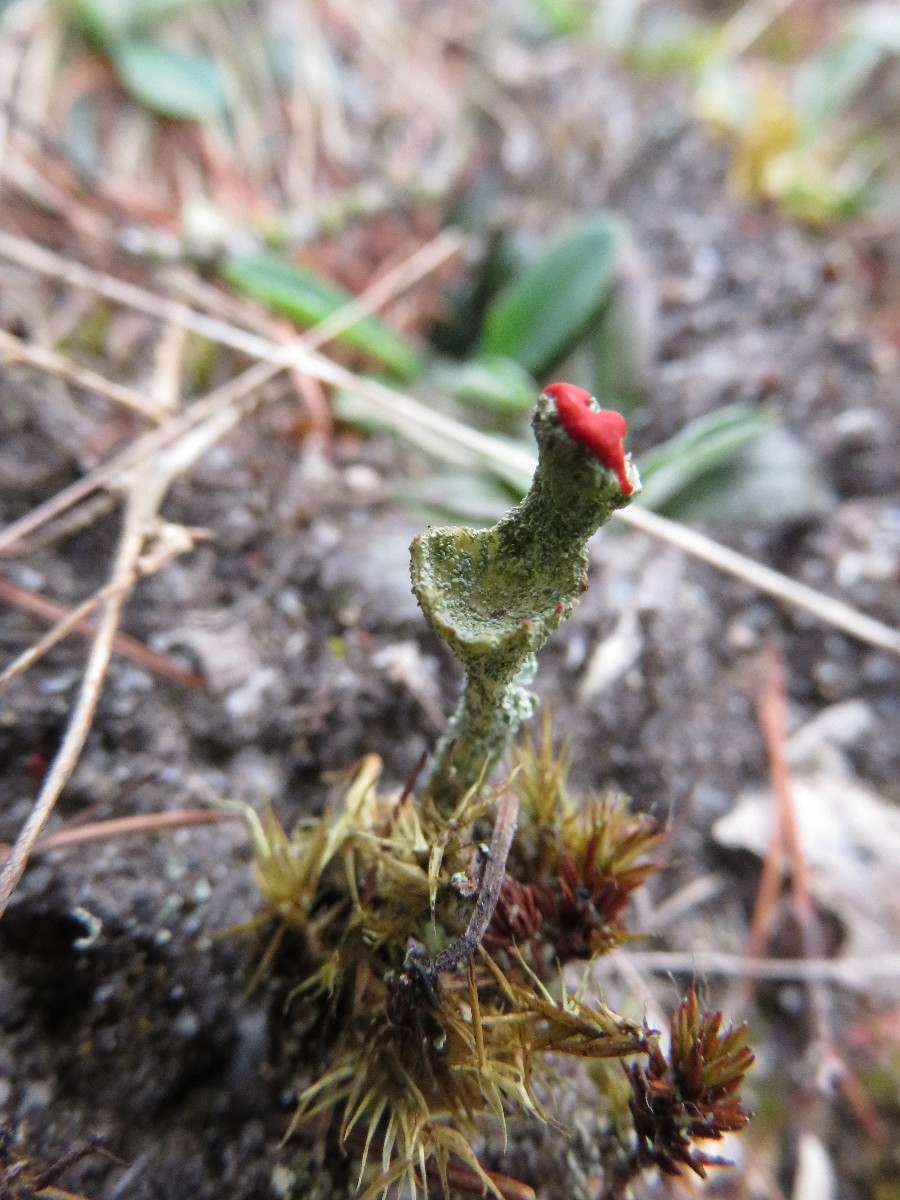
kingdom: Fungi
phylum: Ascomycota
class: Lecanoromycetes
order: Lecanorales
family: Cladoniaceae
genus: Cladonia
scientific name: Cladonia diversa
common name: rød bægerlav
